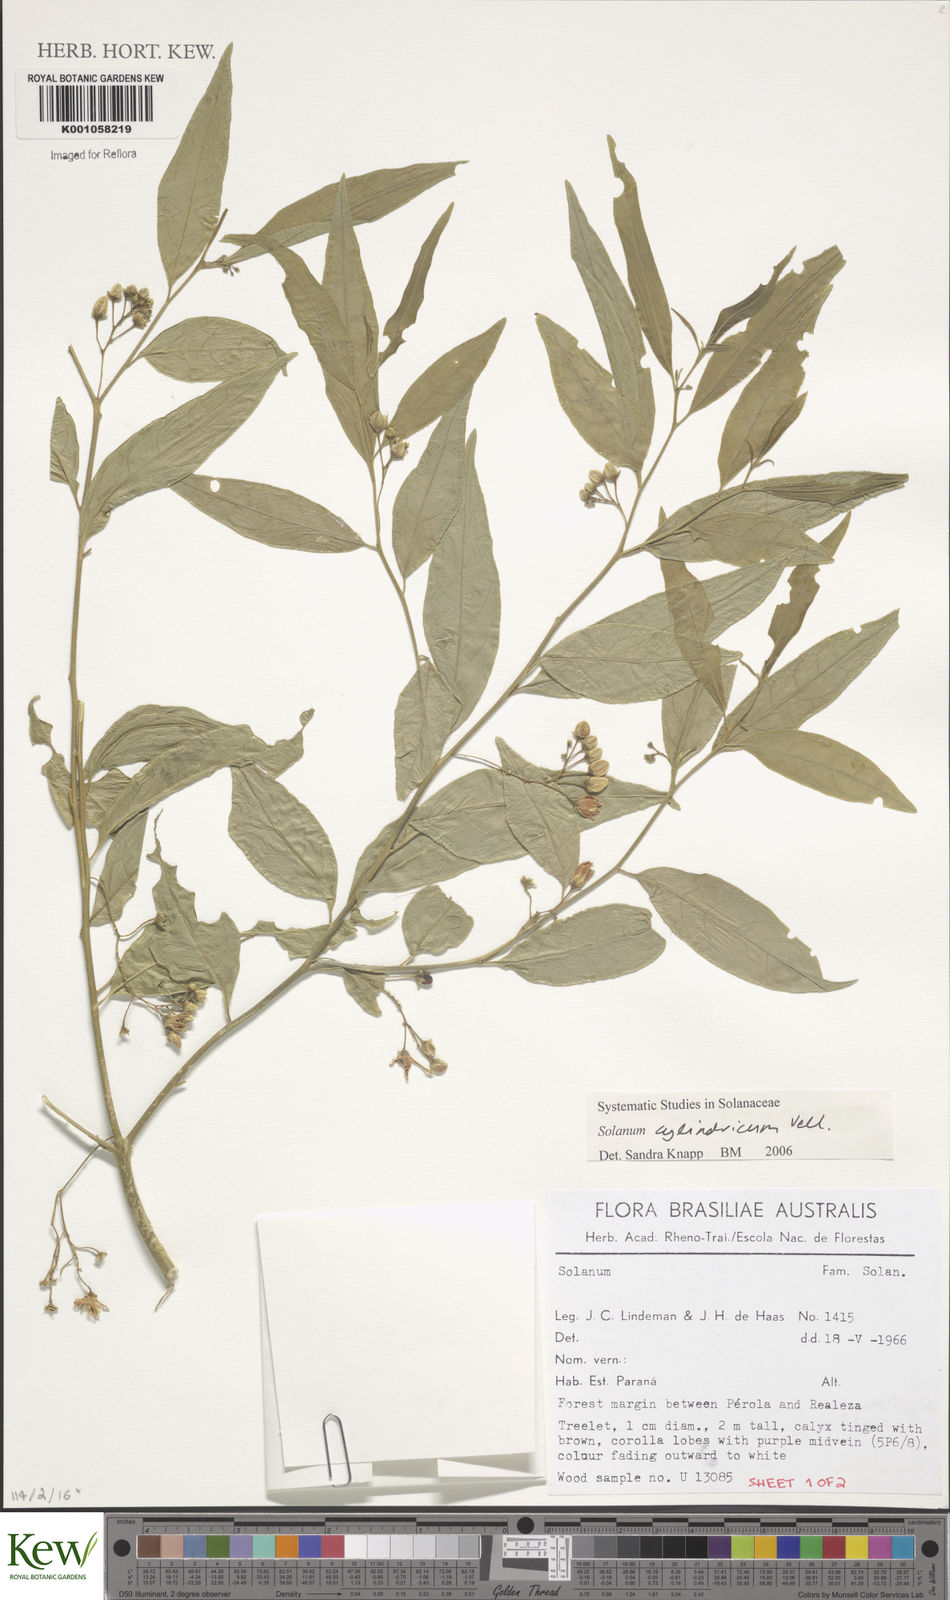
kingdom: Plantae
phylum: Tracheophyta
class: Magnoliopsida
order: Solanales
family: Solanaceae
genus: Solanum
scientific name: Solanum cylindricum
